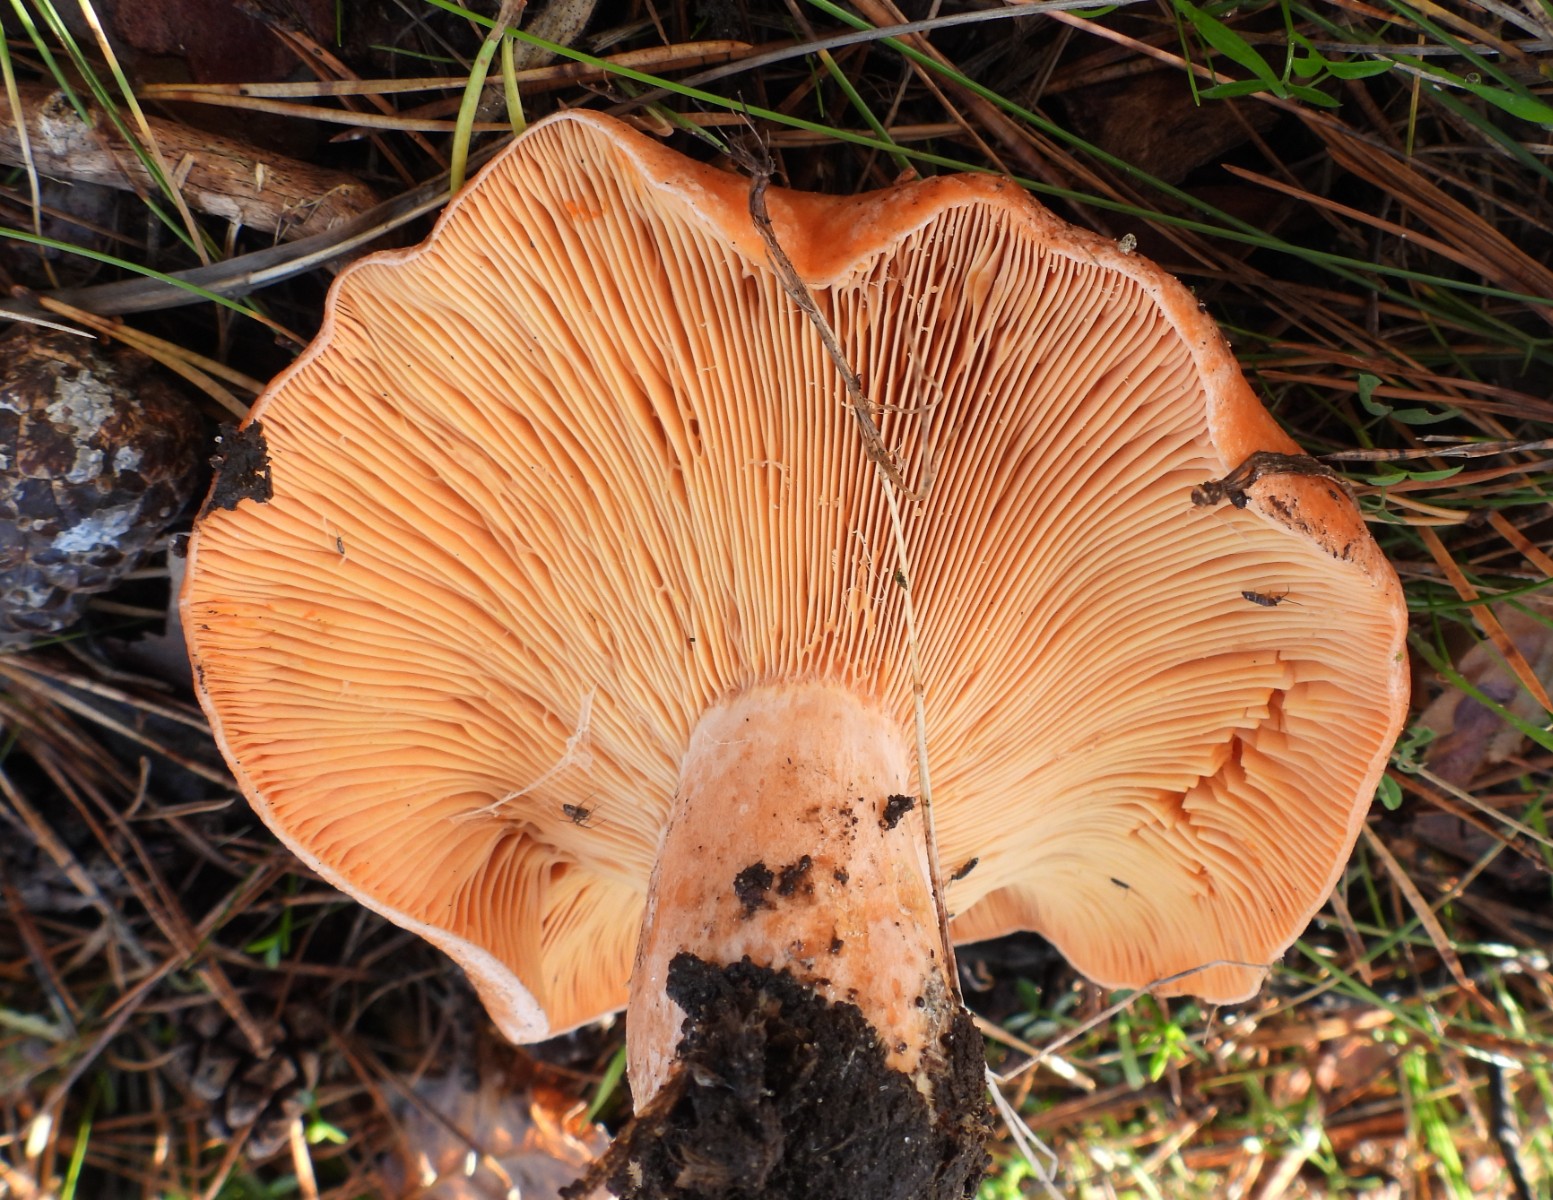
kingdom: Fungi
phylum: Basidiomycota
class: Agaricomycetes
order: Russulales
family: Russulaceae
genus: Lactarius
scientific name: Lactarius deliciosus
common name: velsmagende mælkehat
